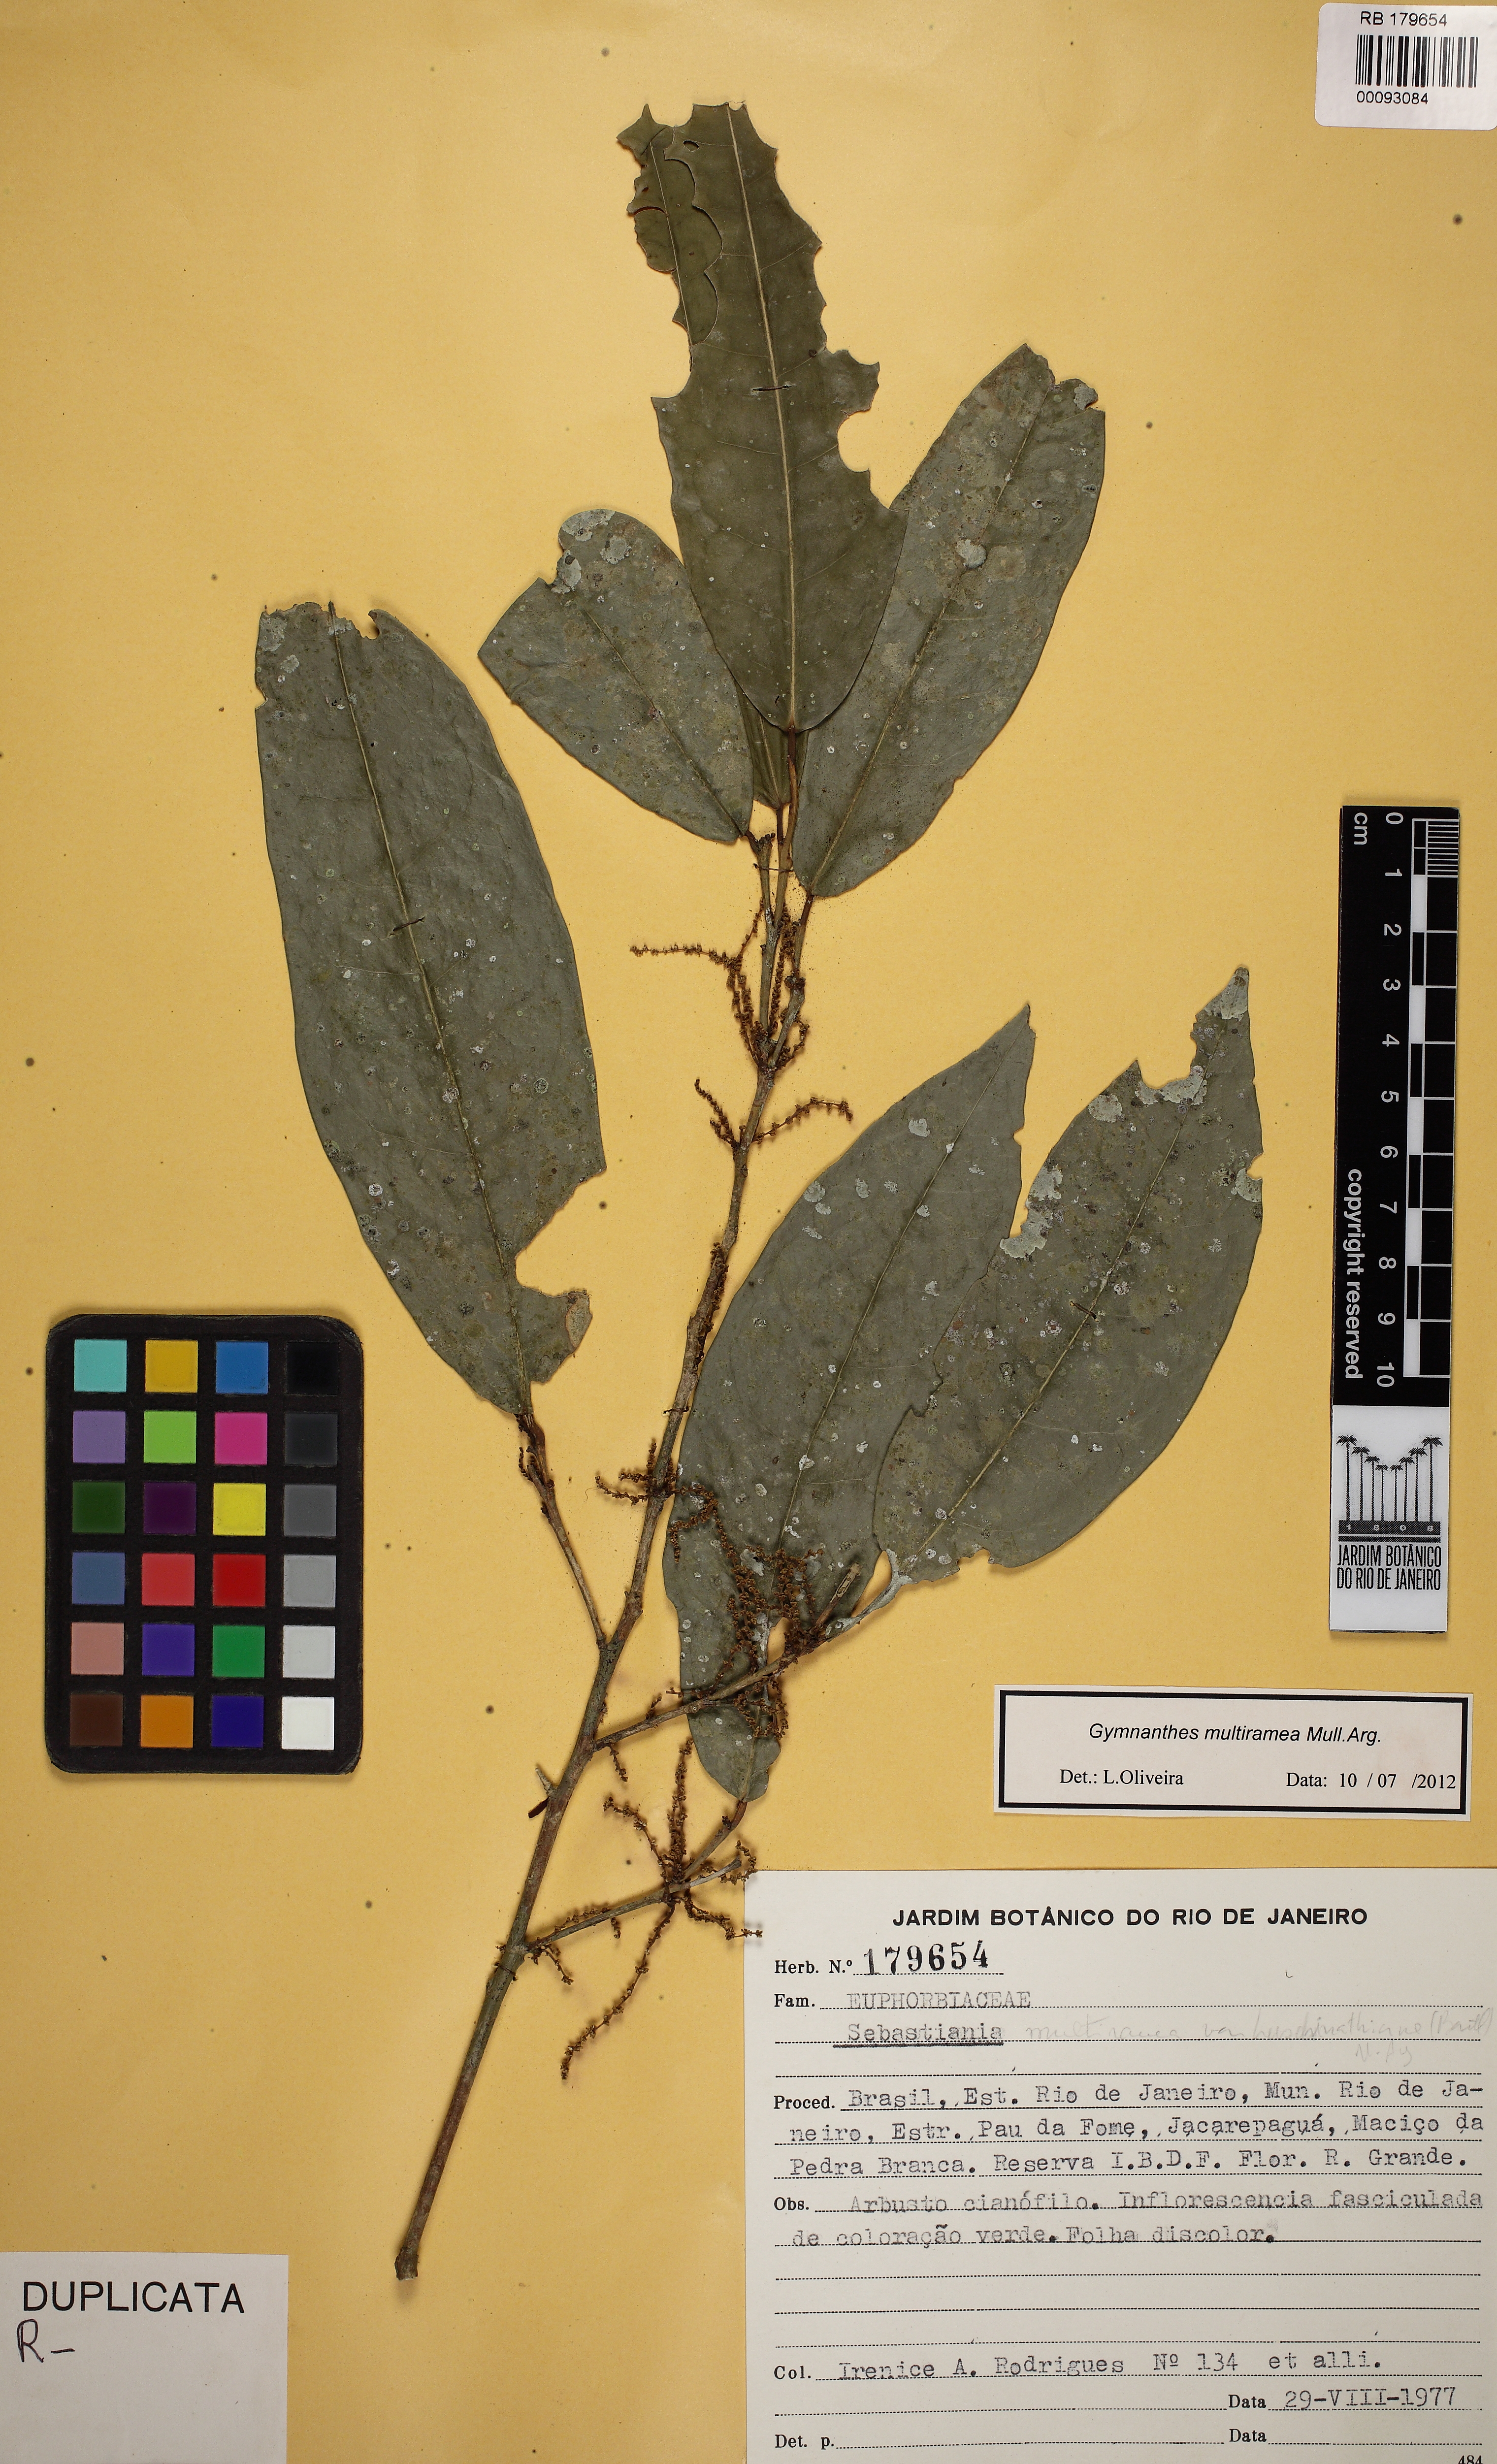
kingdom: Plantae
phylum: Tracheophyta
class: Magnoliopsida
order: Malpighiales
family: Euphorbiaceae
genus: Gymnanthes
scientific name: Gymnanthes glabrata
